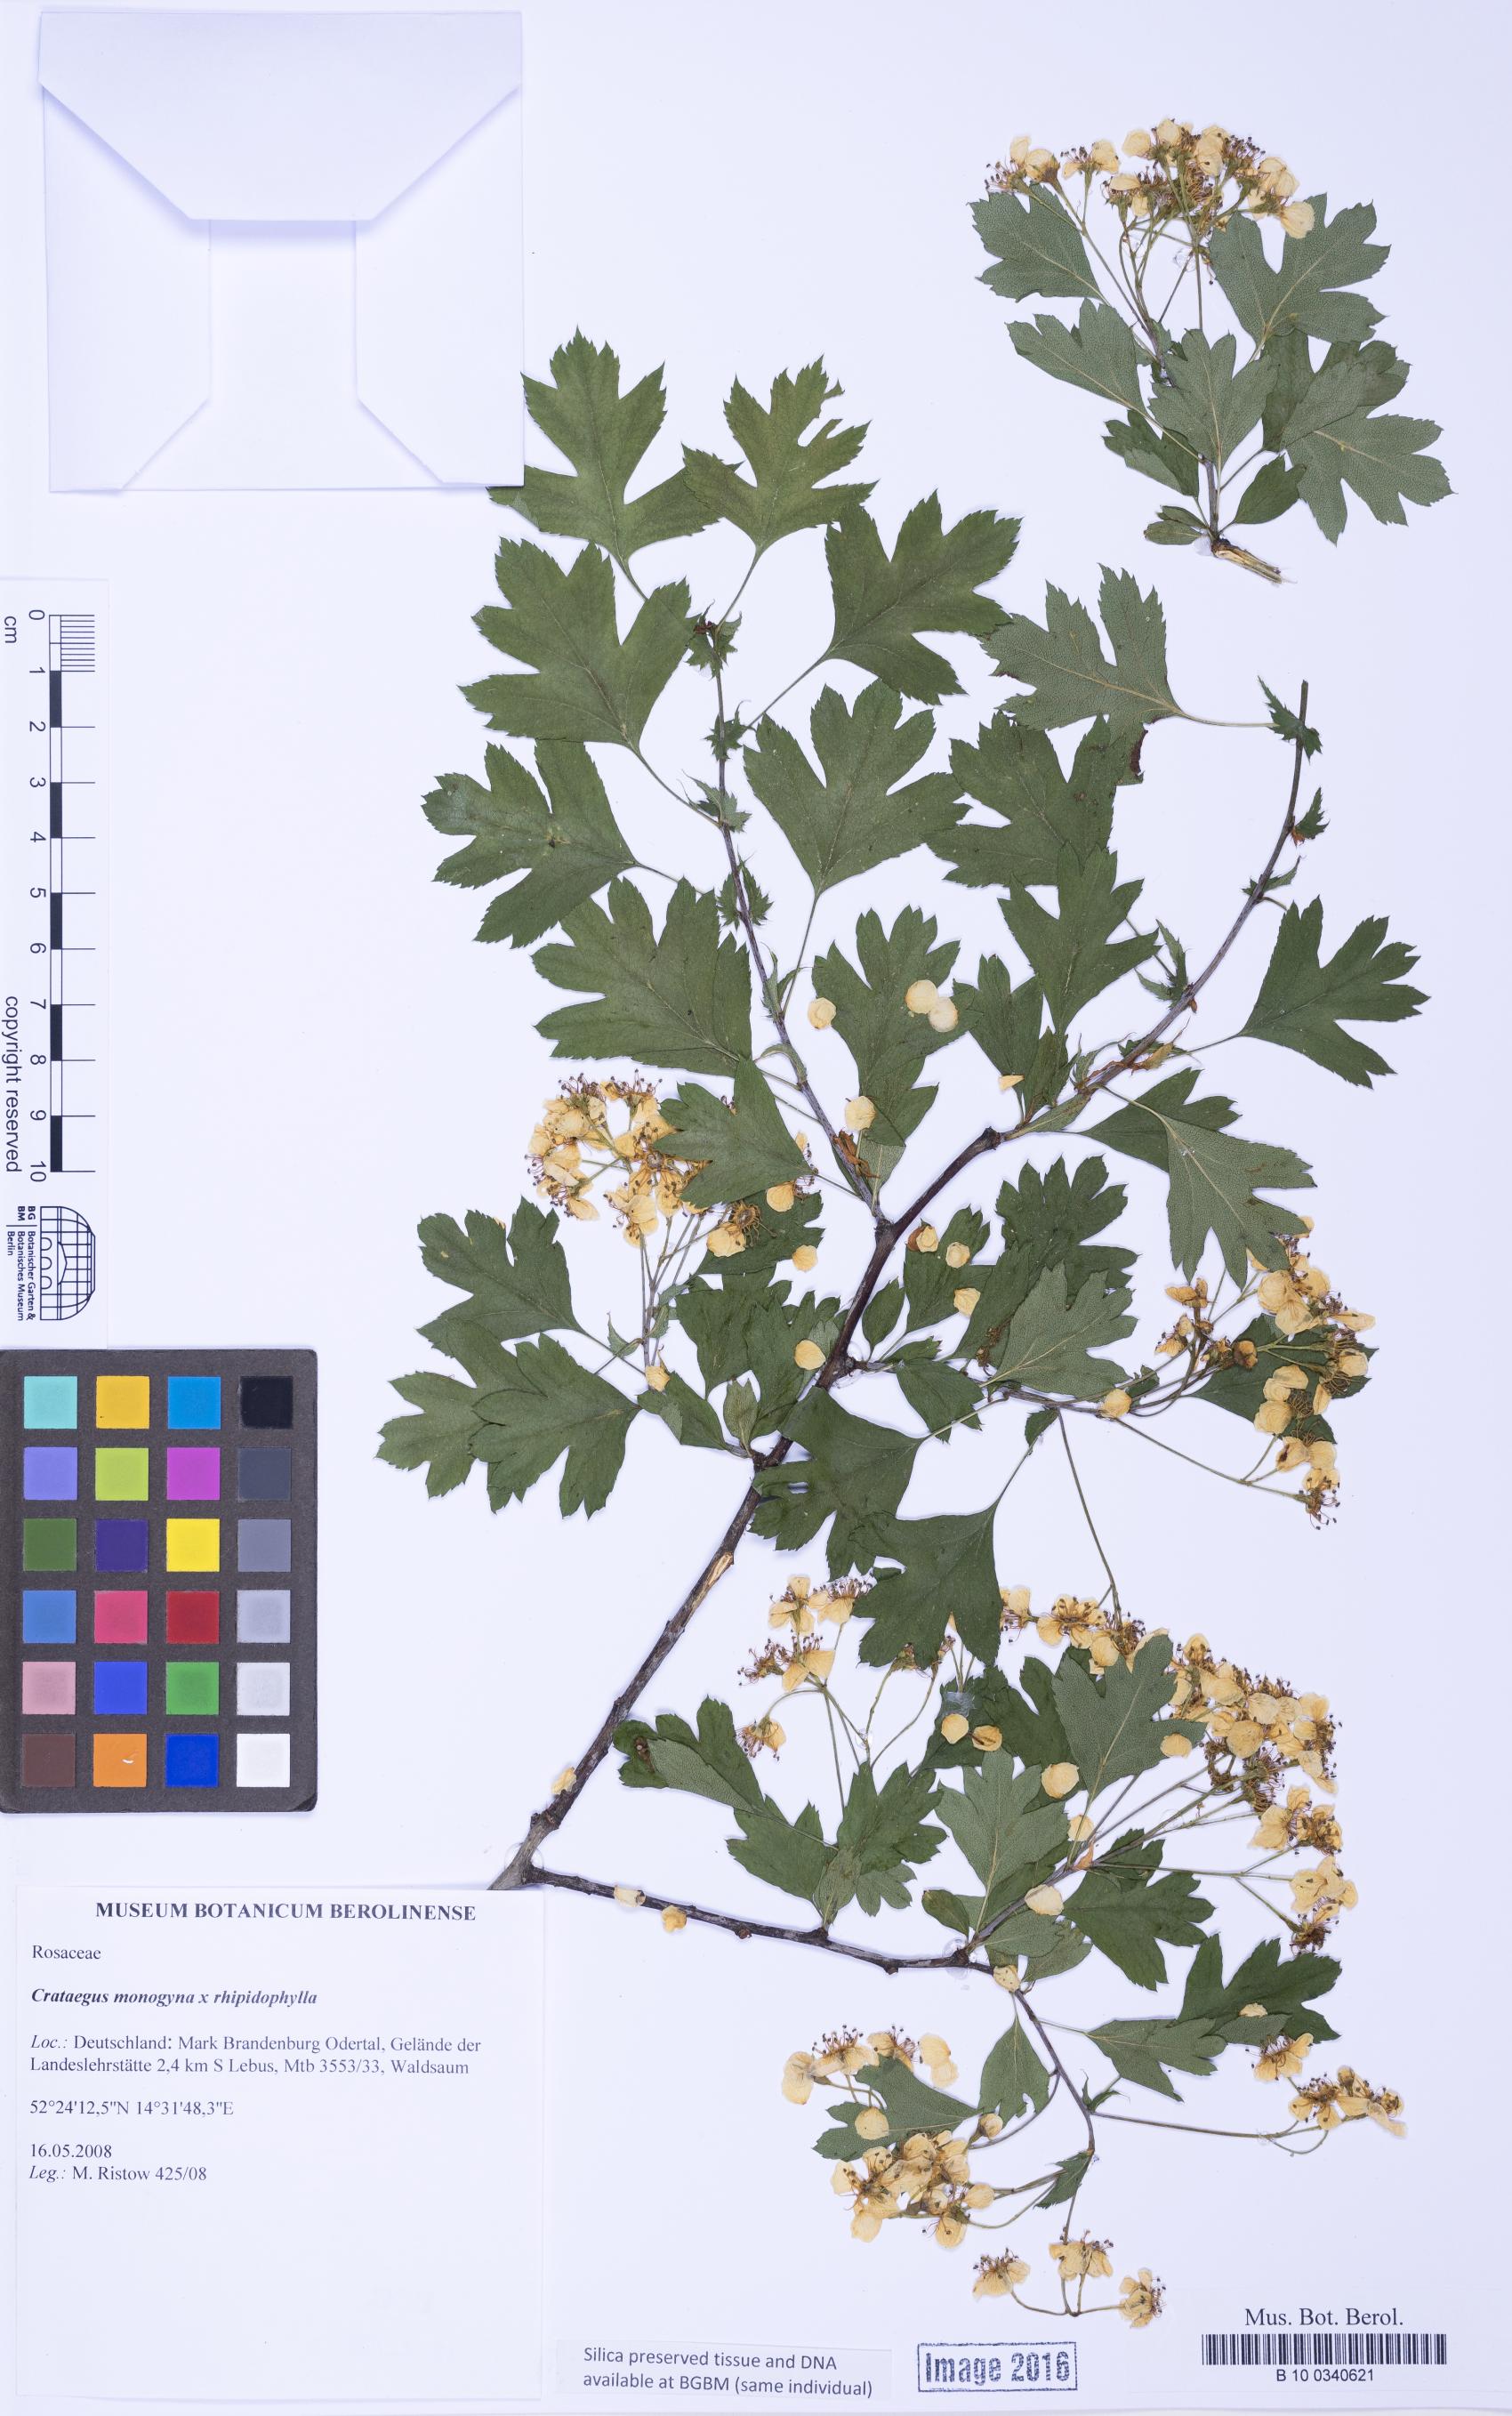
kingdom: Plantae
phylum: Tracheophyta
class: Magnoliopsida
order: Rosales
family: Rosaceae
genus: Crataegus
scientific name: Crataegus
